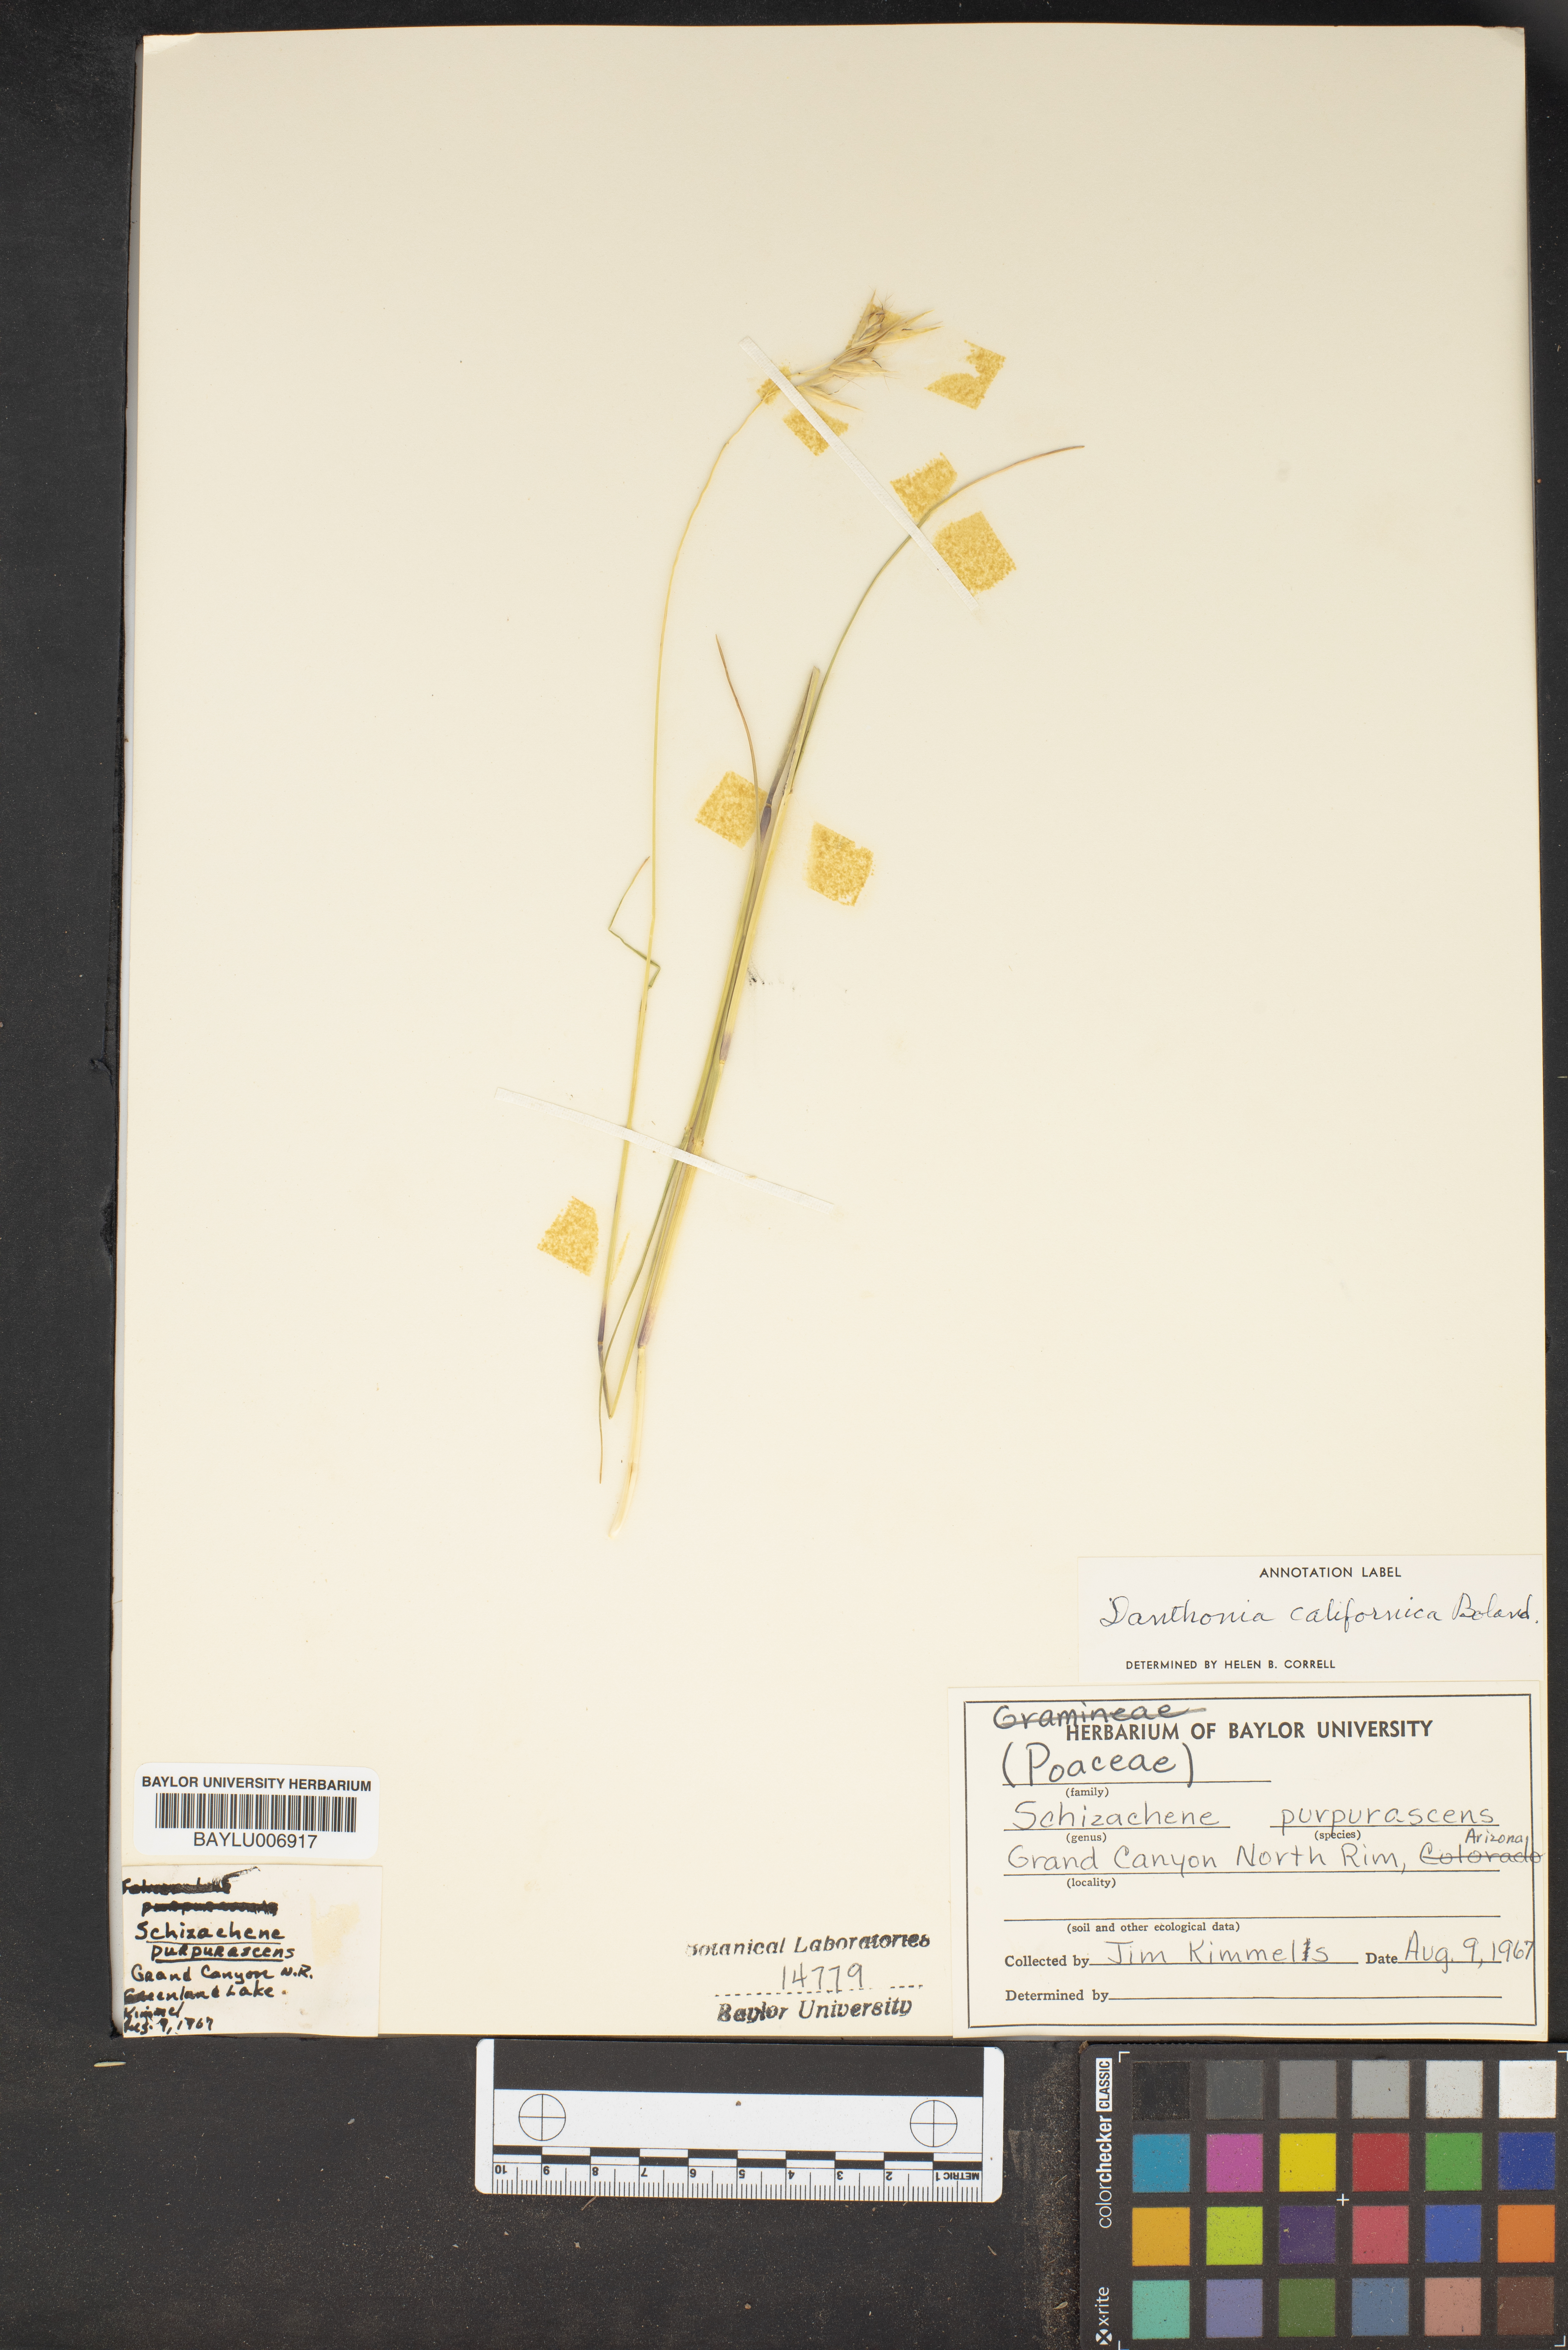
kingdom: Plantae
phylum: Tracheophyta
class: Liliopsida
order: Poales
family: Poaceae
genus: Danthonia
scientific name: Danthonia californica
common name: California oat grass
